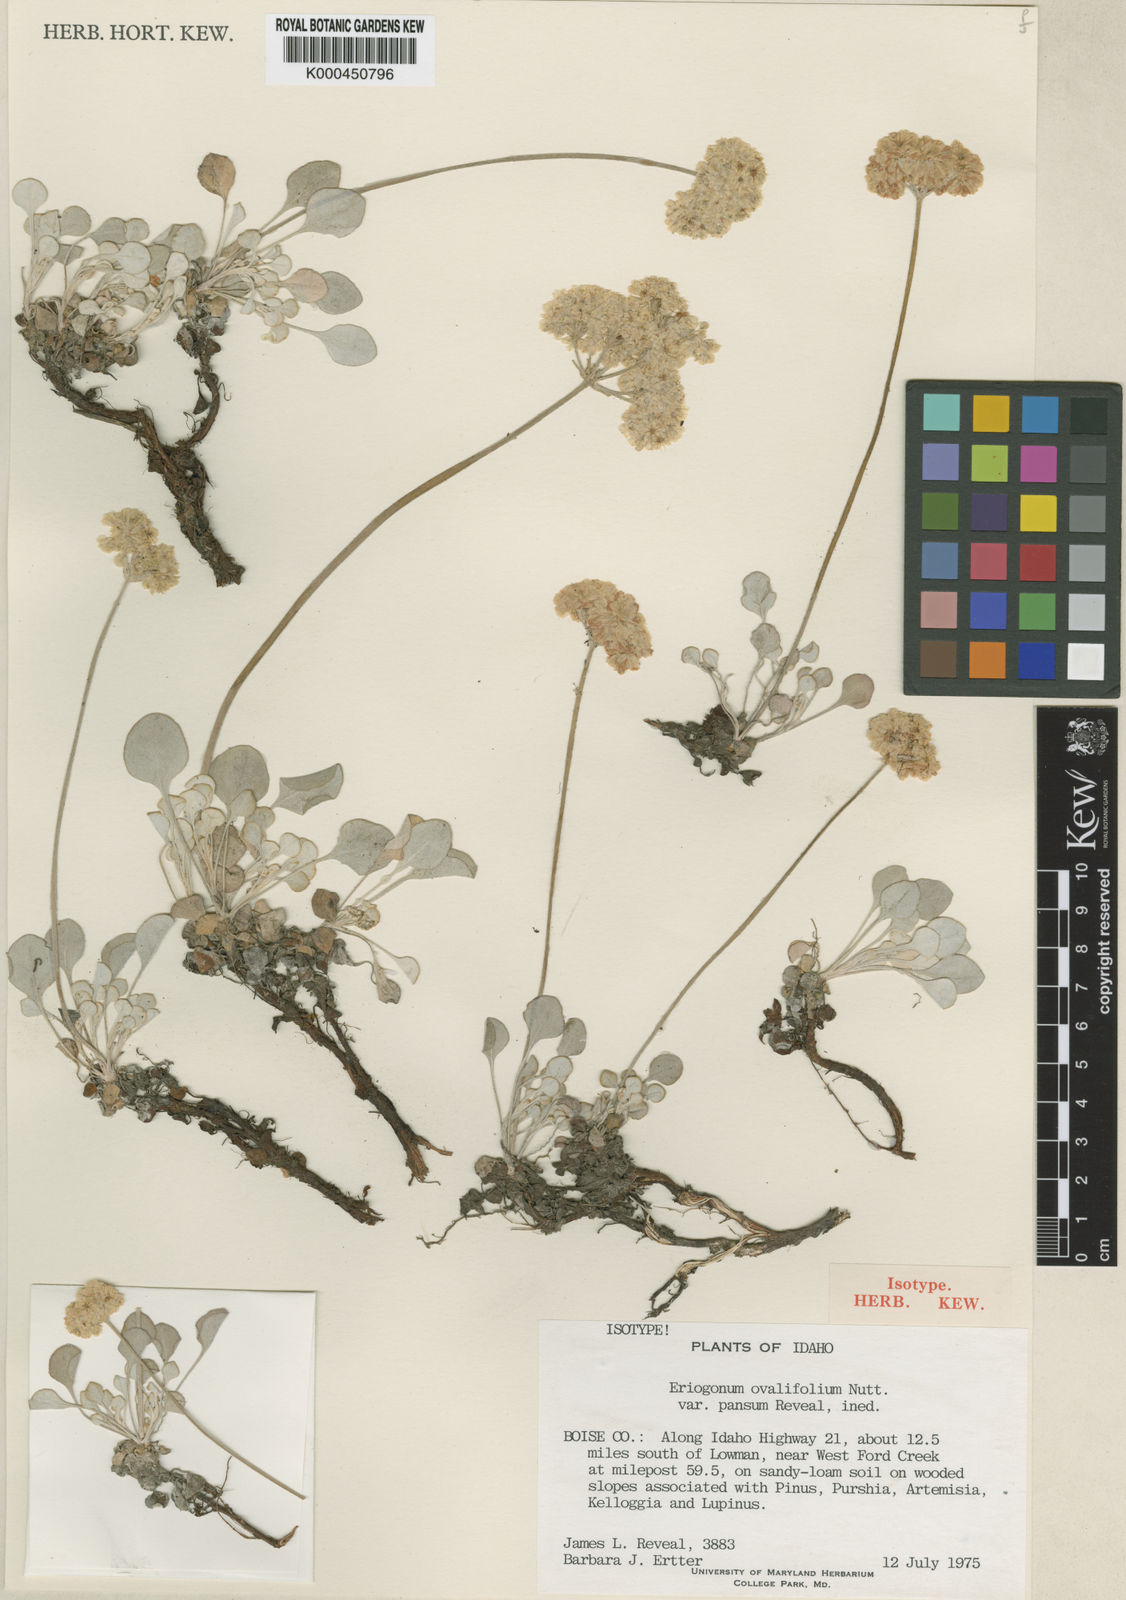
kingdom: Plantae
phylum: Tracheophyta
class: Magnoliopsida
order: Caryophyllales
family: Polygonaceae
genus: Eriogonum
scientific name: Eriogonum ovalifolium
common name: Cushion buckwheat
